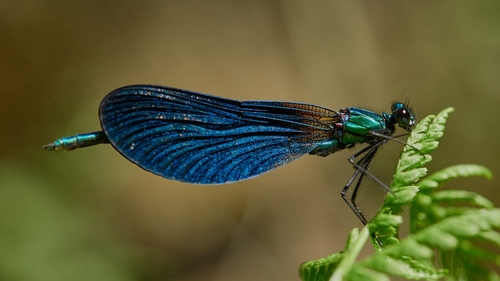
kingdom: Animalia
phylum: Arthropoda
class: Insecta
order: Odonata
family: Calopterygidae
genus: Calopteryx
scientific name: Calopteryx virgo
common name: Beautiful demoiselle
